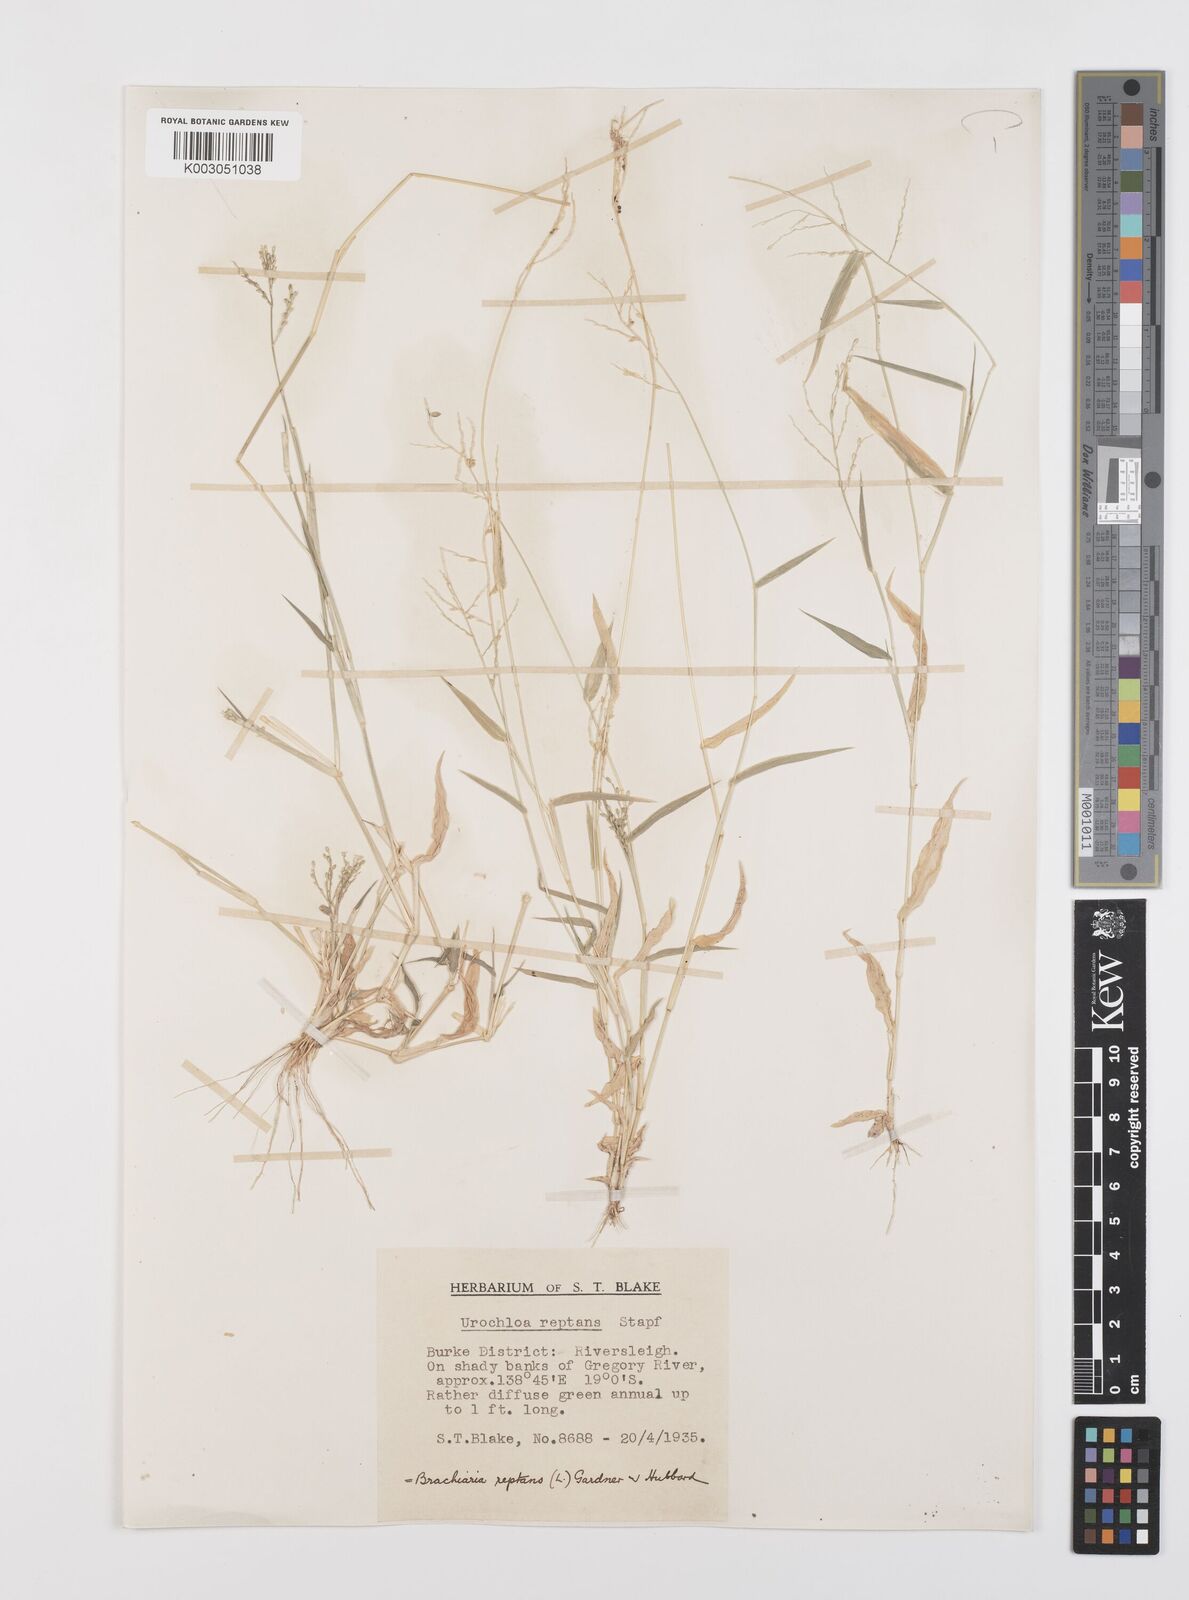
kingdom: Plantae
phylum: Tracheophyta
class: Liliopsida
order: Poales
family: Poaceae
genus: Urochloa
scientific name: Urochloa reptans
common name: Sprawling signalgrass
